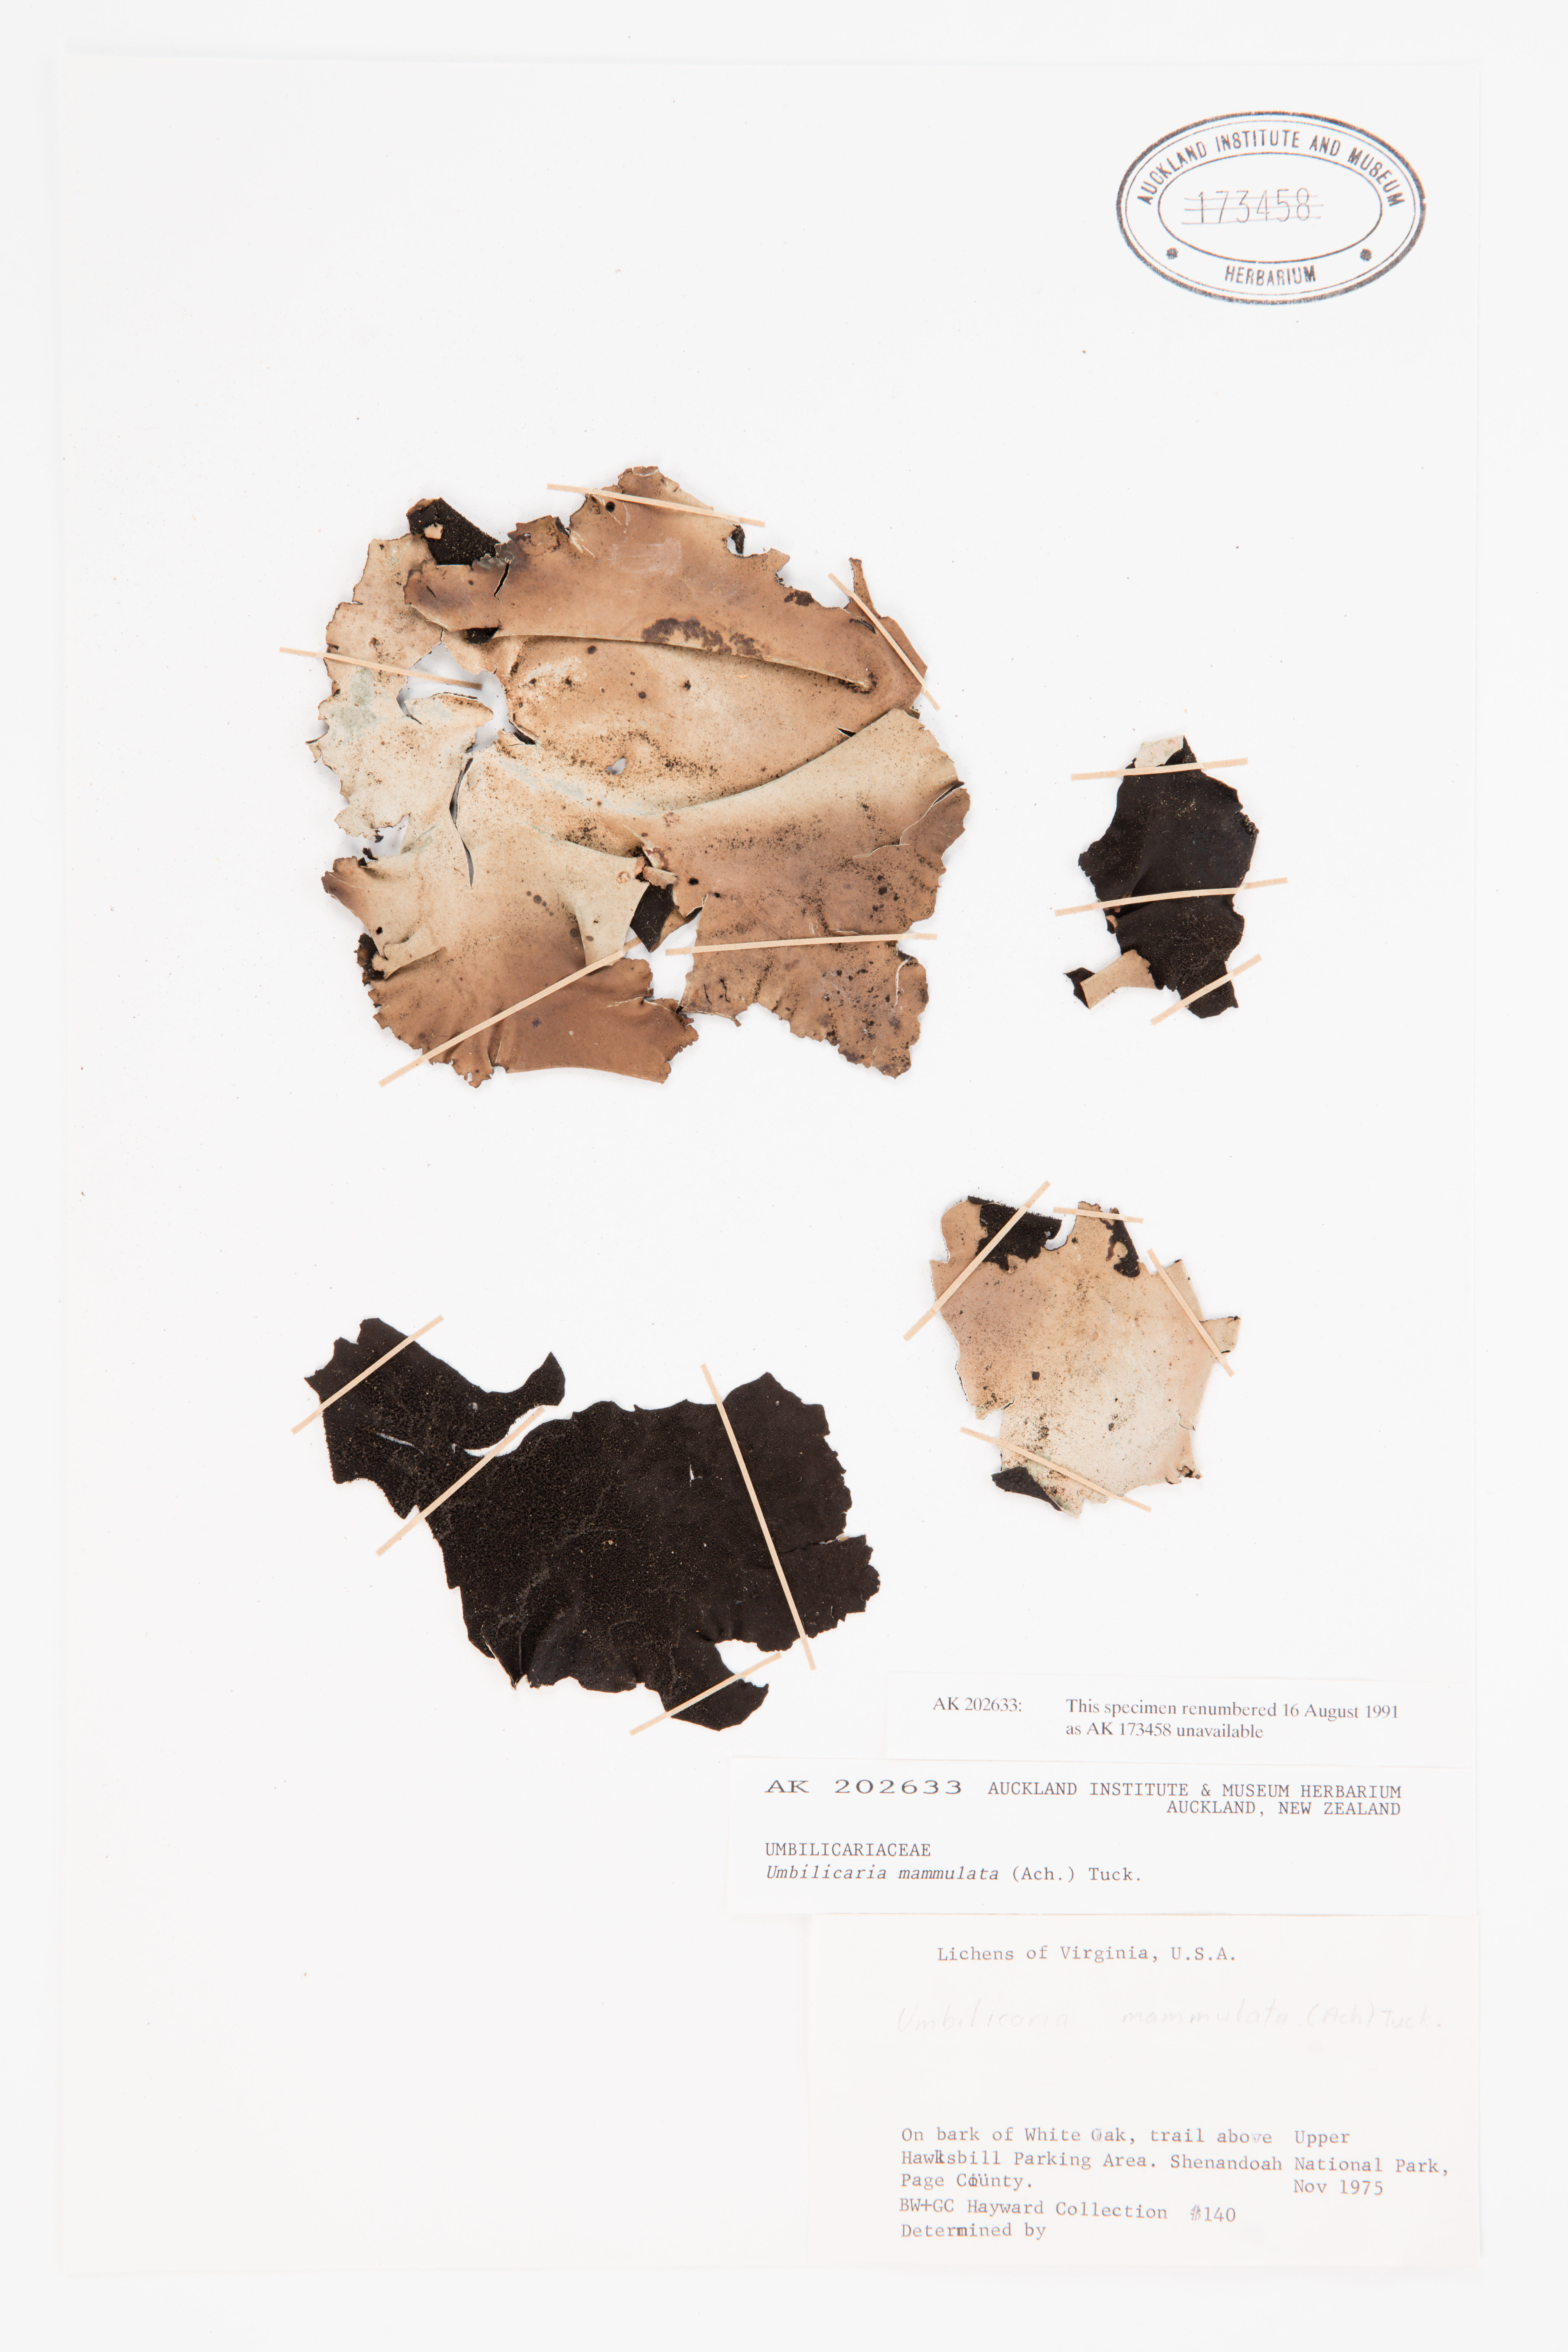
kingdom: Fungi
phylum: Ascomycota
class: Lecanoromycetes
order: Umbilicariales
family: Umbilicariaceae
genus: Umbilicaria
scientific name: Umbilicaria mammulata
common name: Smooth rock tripe
